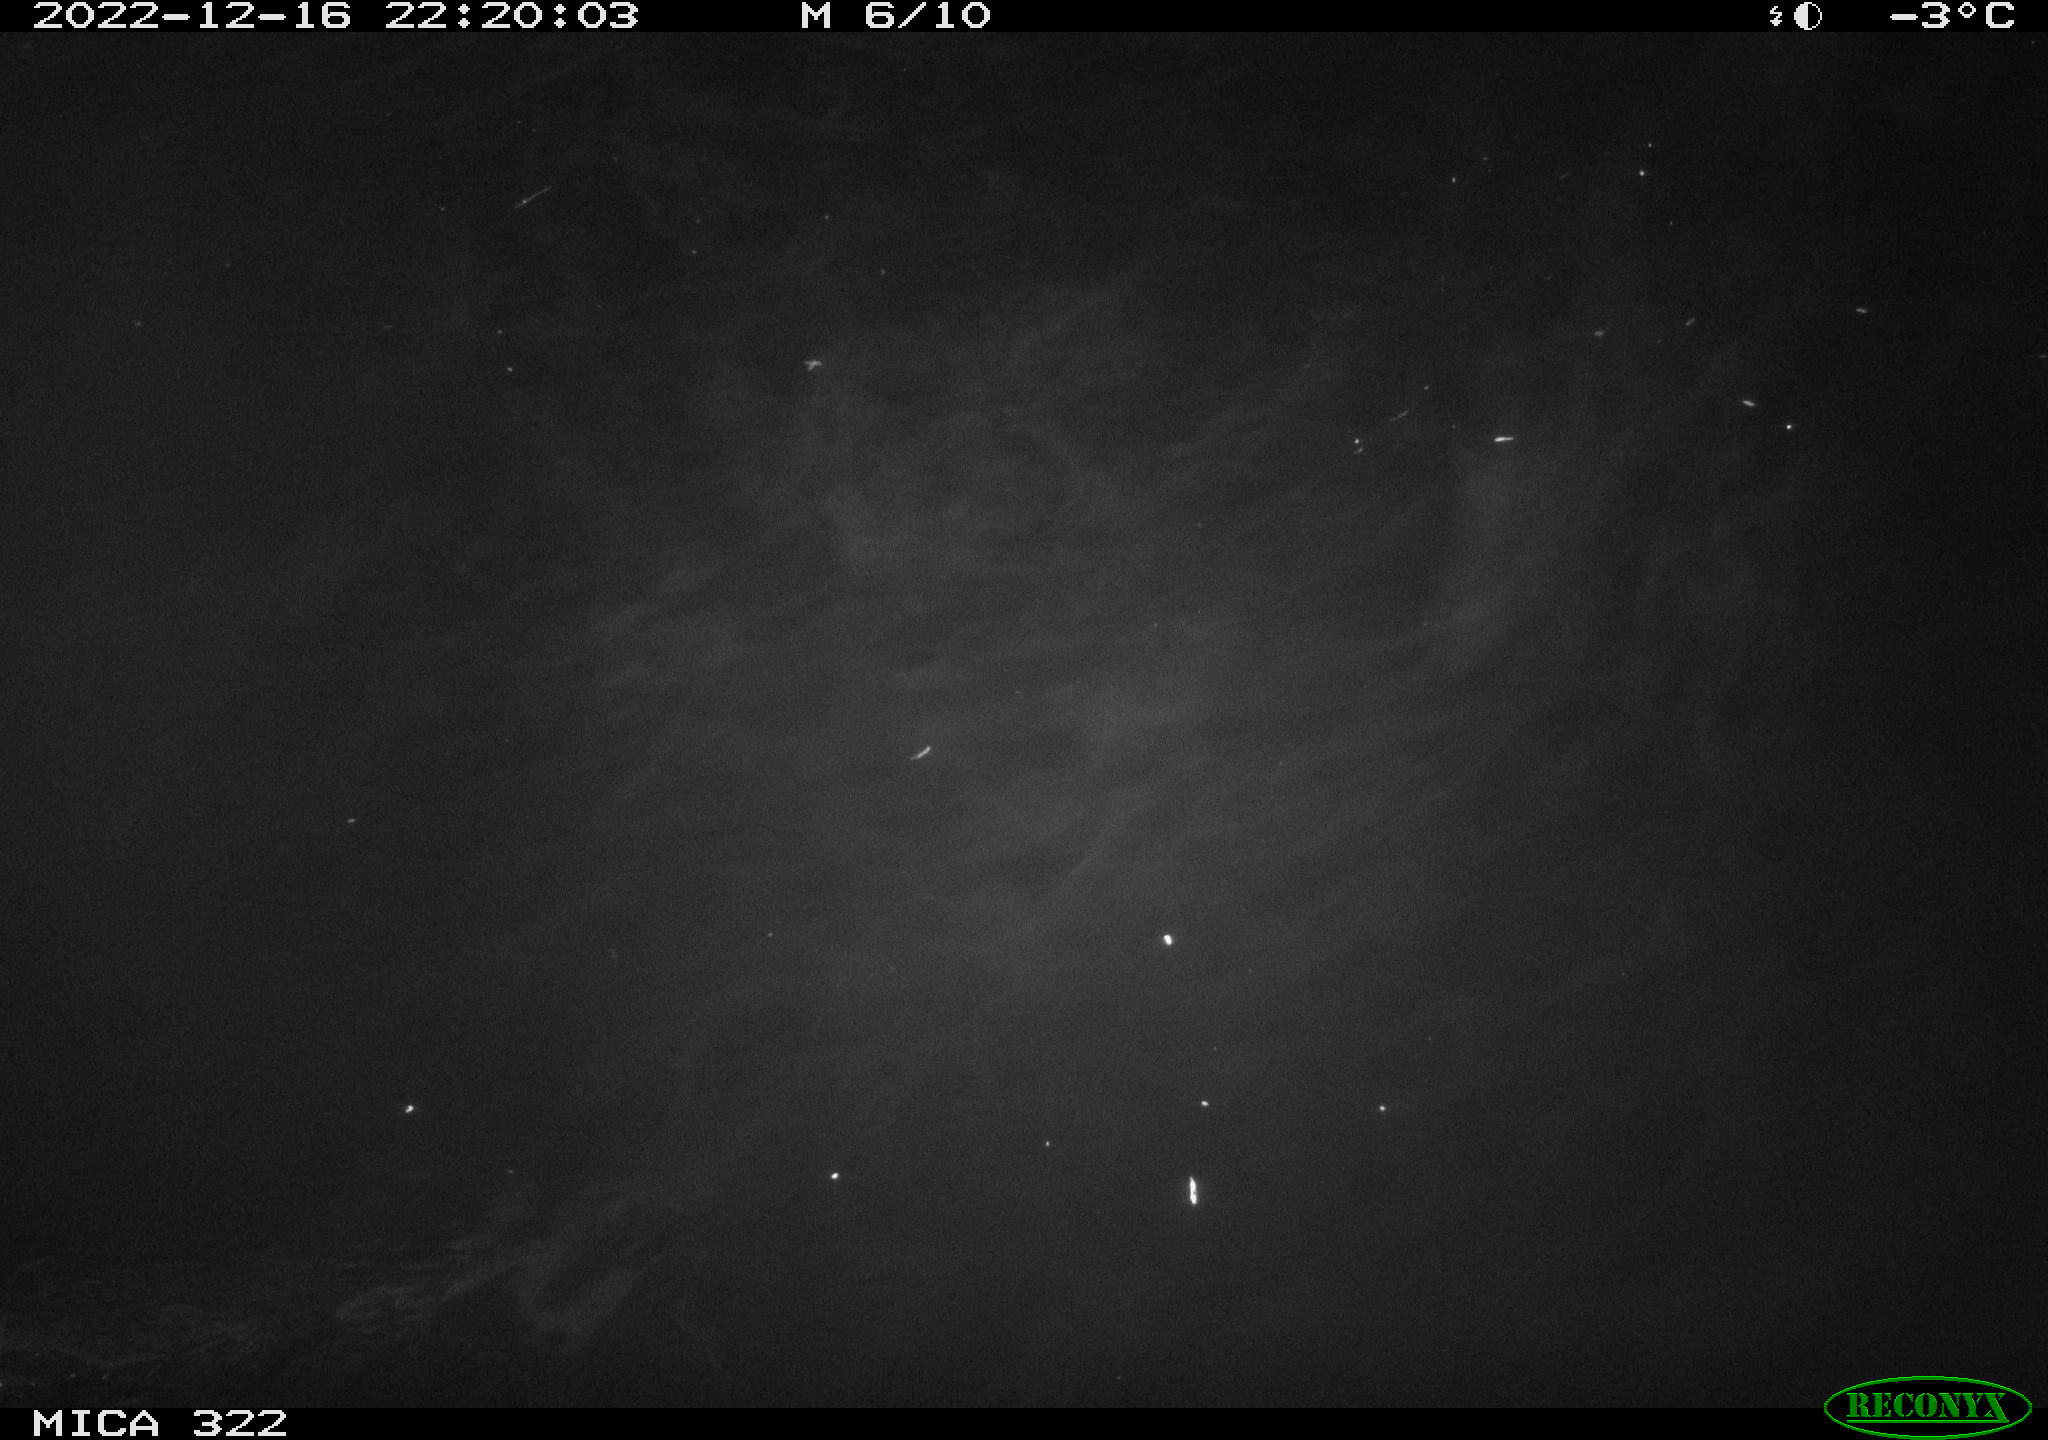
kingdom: Animalia
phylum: Chordata
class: Aves
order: Anseriformes
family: Anatidae
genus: Anas
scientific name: Anas
